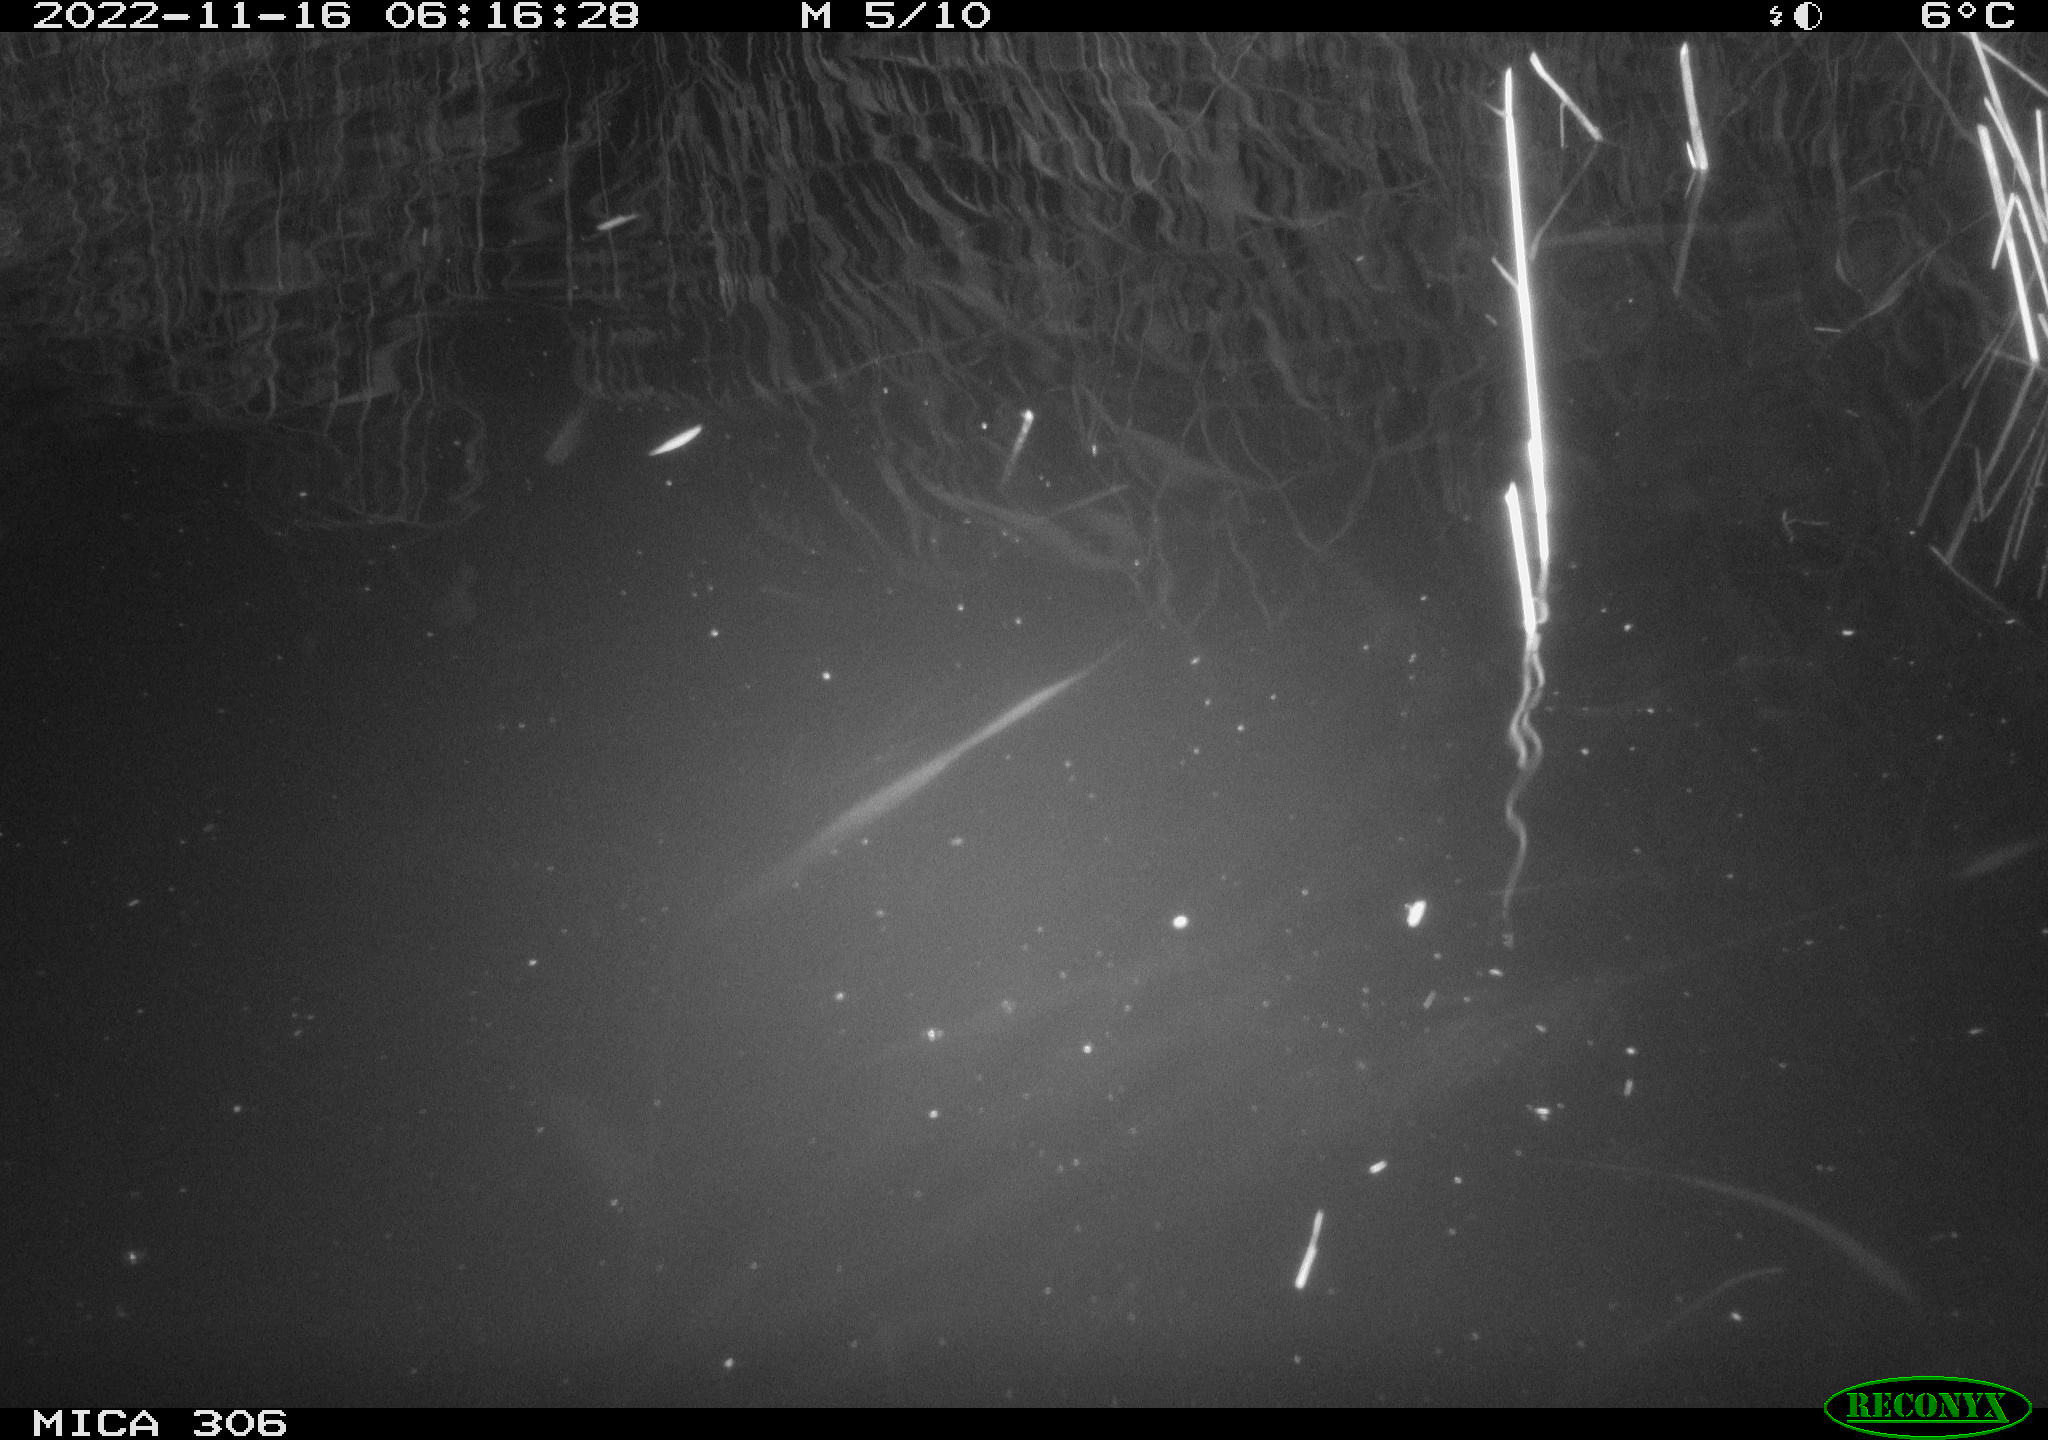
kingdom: Animalia
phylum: Chordata
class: Mammalia
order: Rodentia
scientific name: Rodentia
